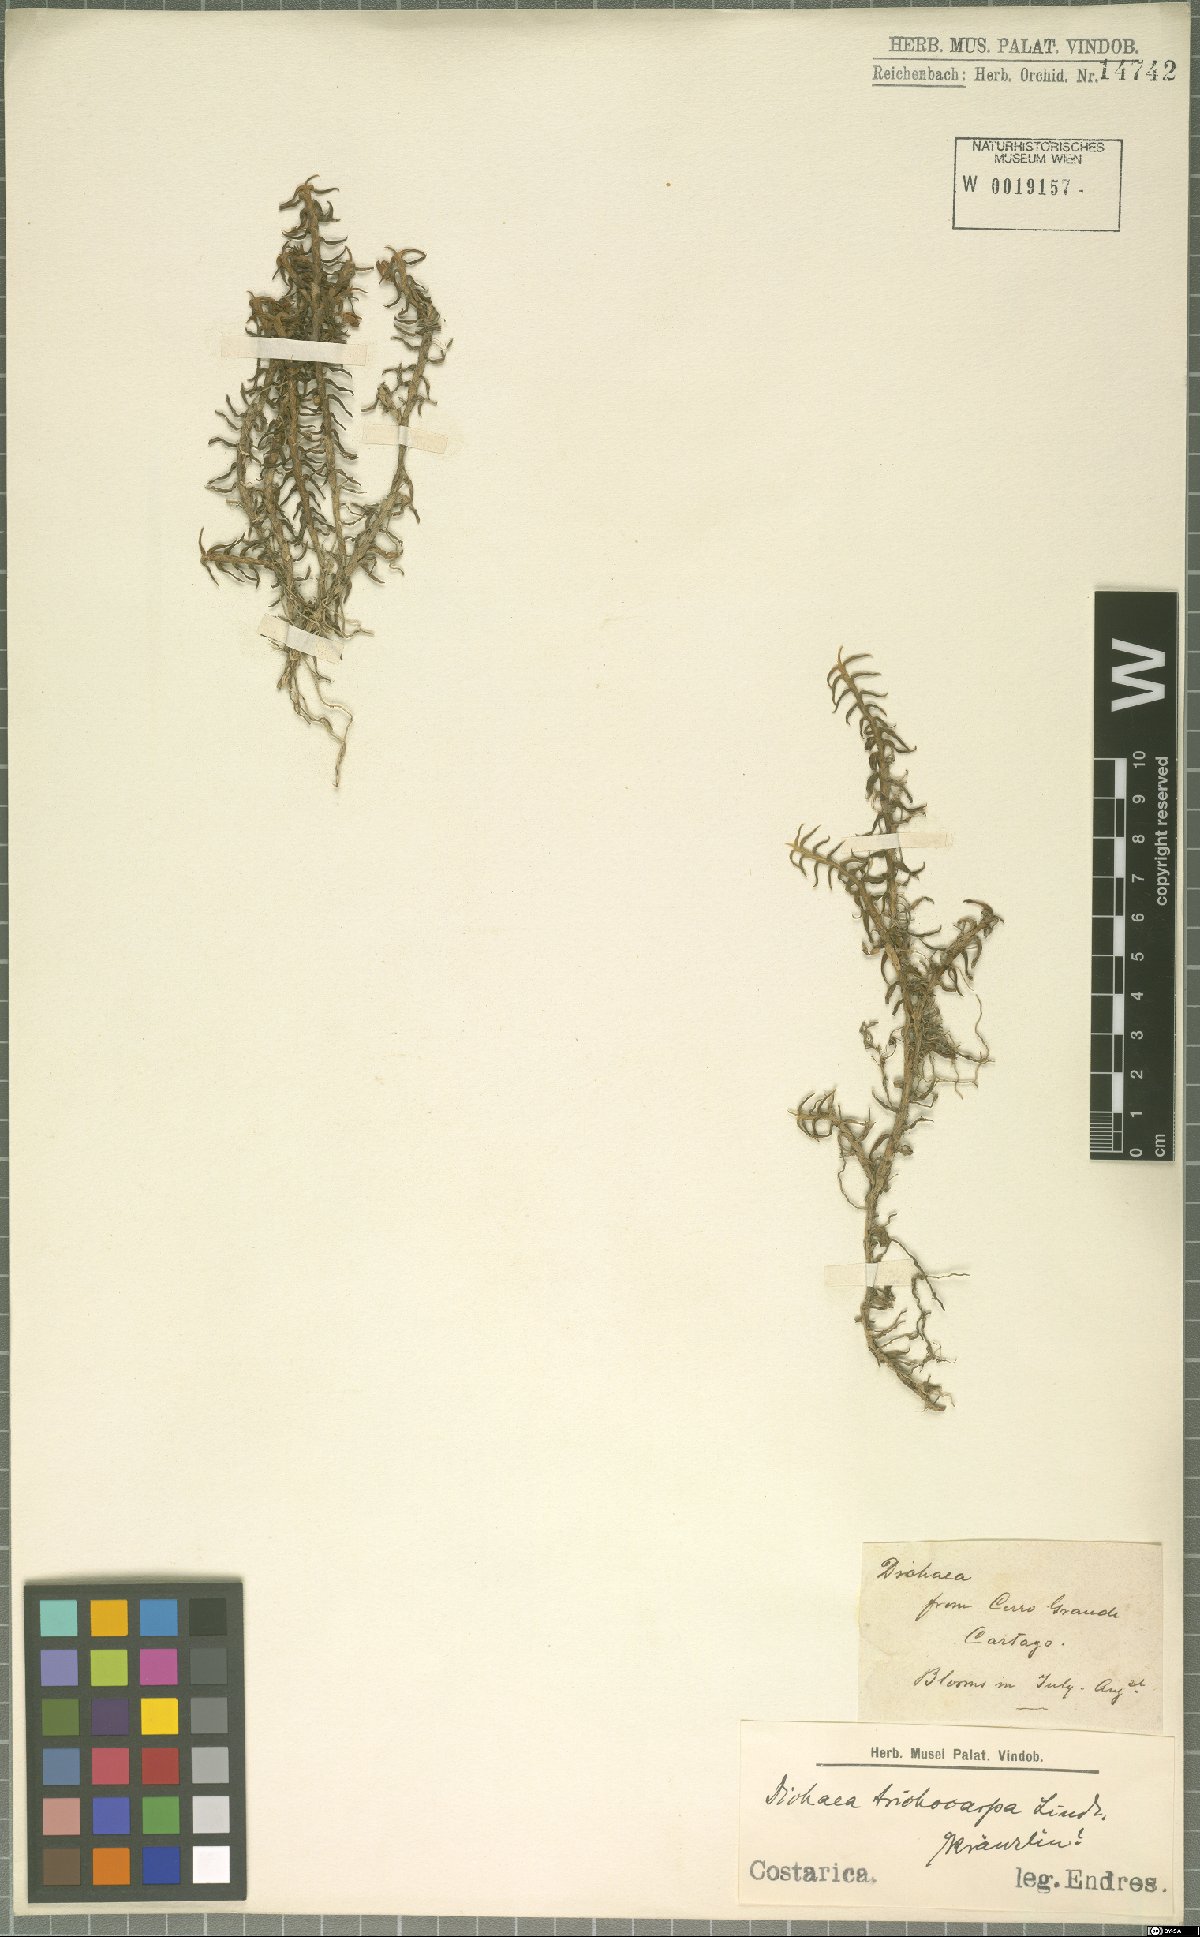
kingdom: Plantae
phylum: Tracheophyta
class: Liliopsida
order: Asparagales
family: Orchidaceae
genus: Dichaea
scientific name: Dichaea trichocarpa
